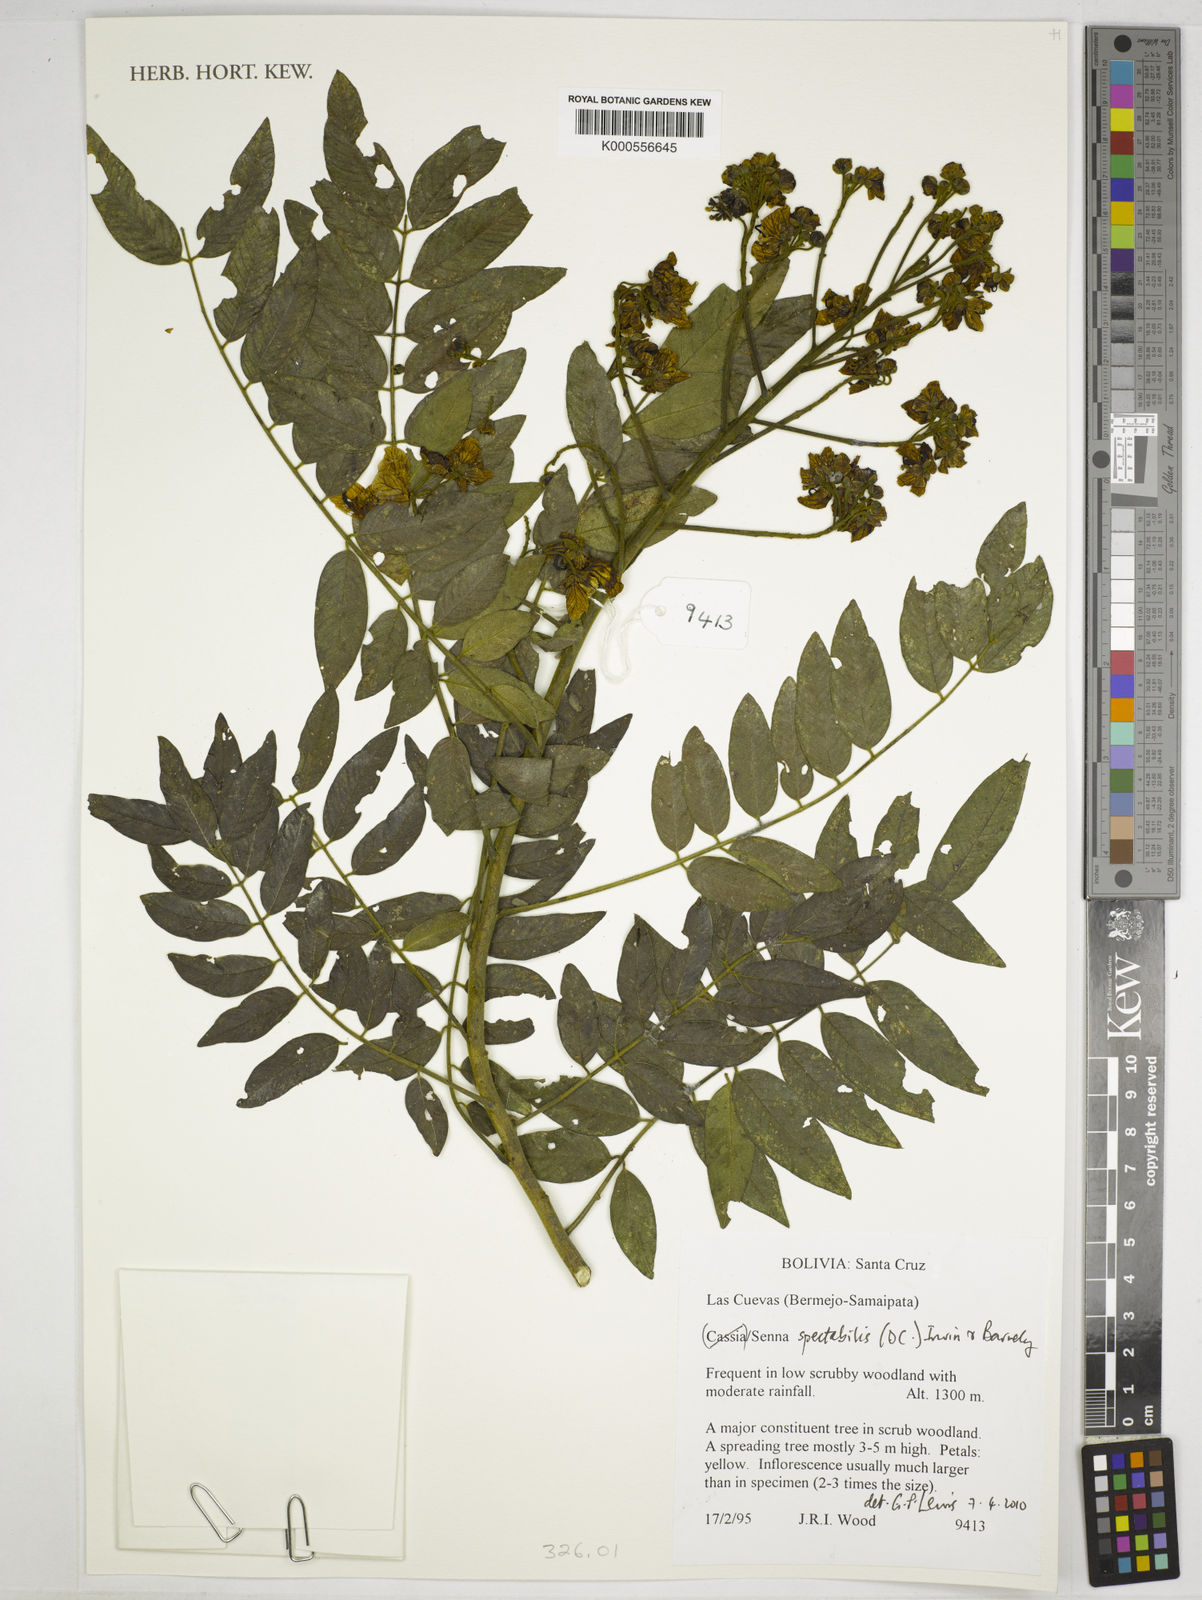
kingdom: Plantae
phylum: Tracheophyta
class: Magnoliopsida
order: Fabales
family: Fabaceae
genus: Senna
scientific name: Senna spectabilis
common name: Casia amarilla
